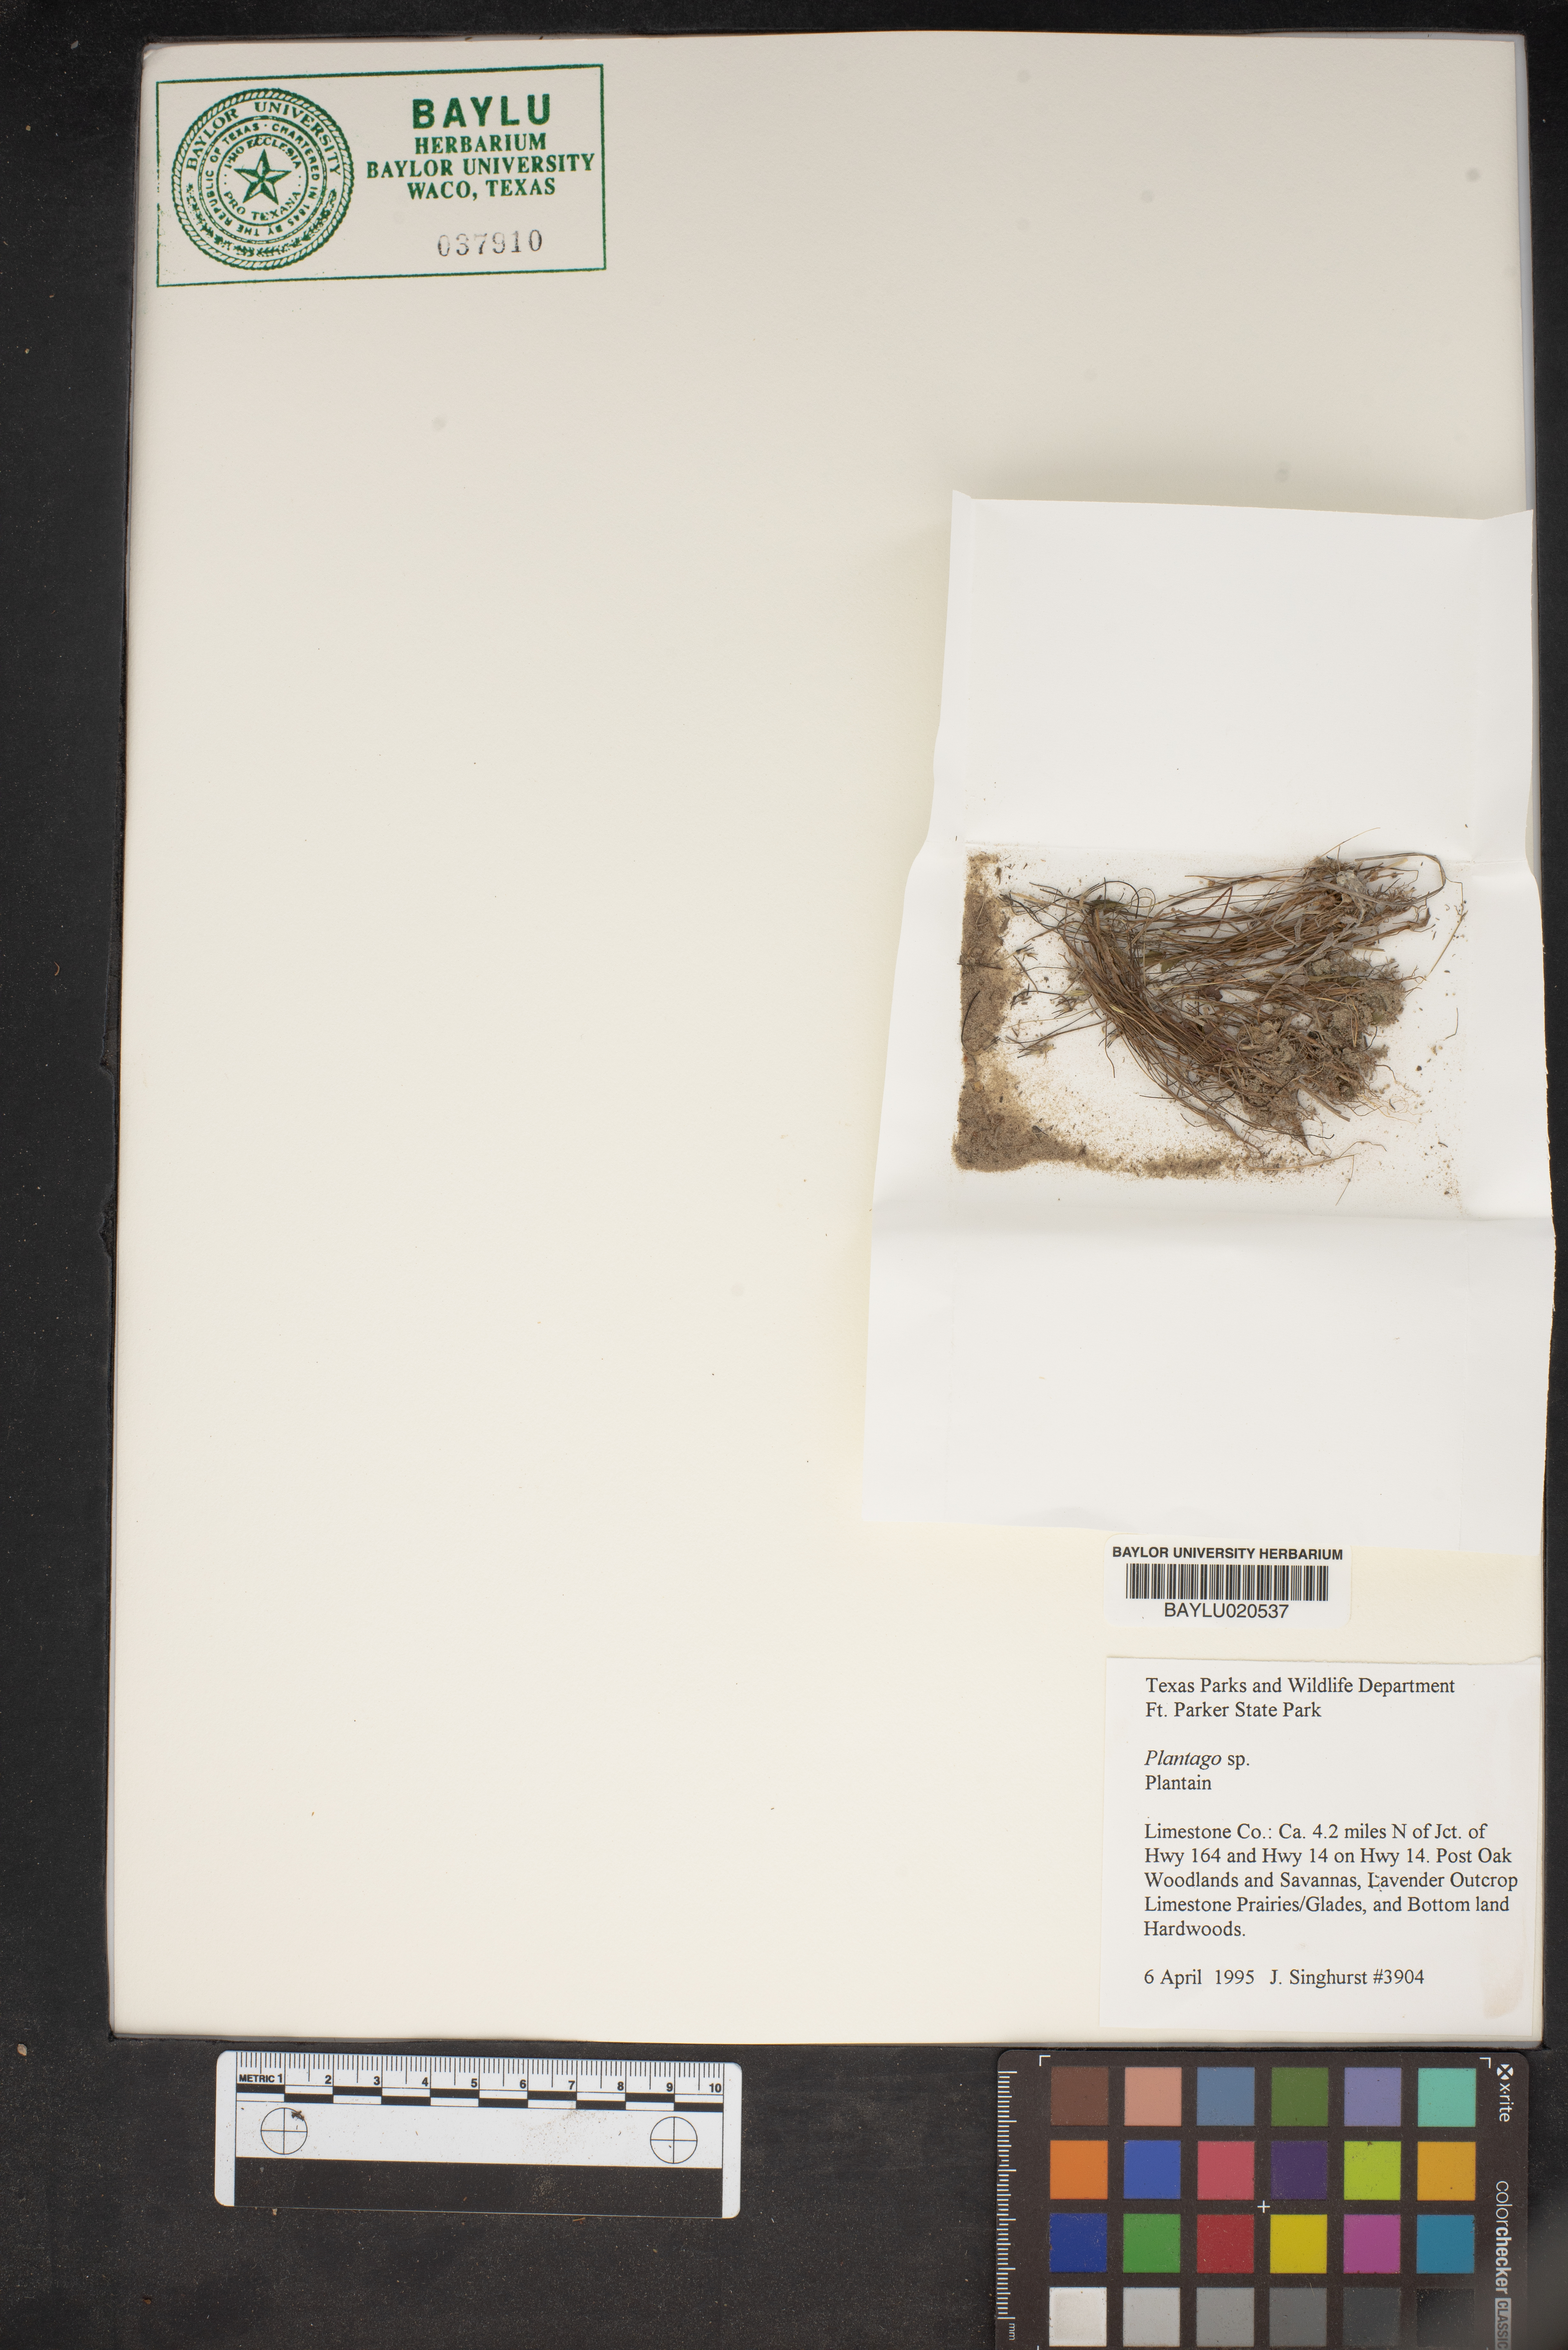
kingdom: Plantae
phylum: Tracheophyta
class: Magnoliopsida
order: Lamiales
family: Plantaginaceae
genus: Plantago
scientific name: Plantago
